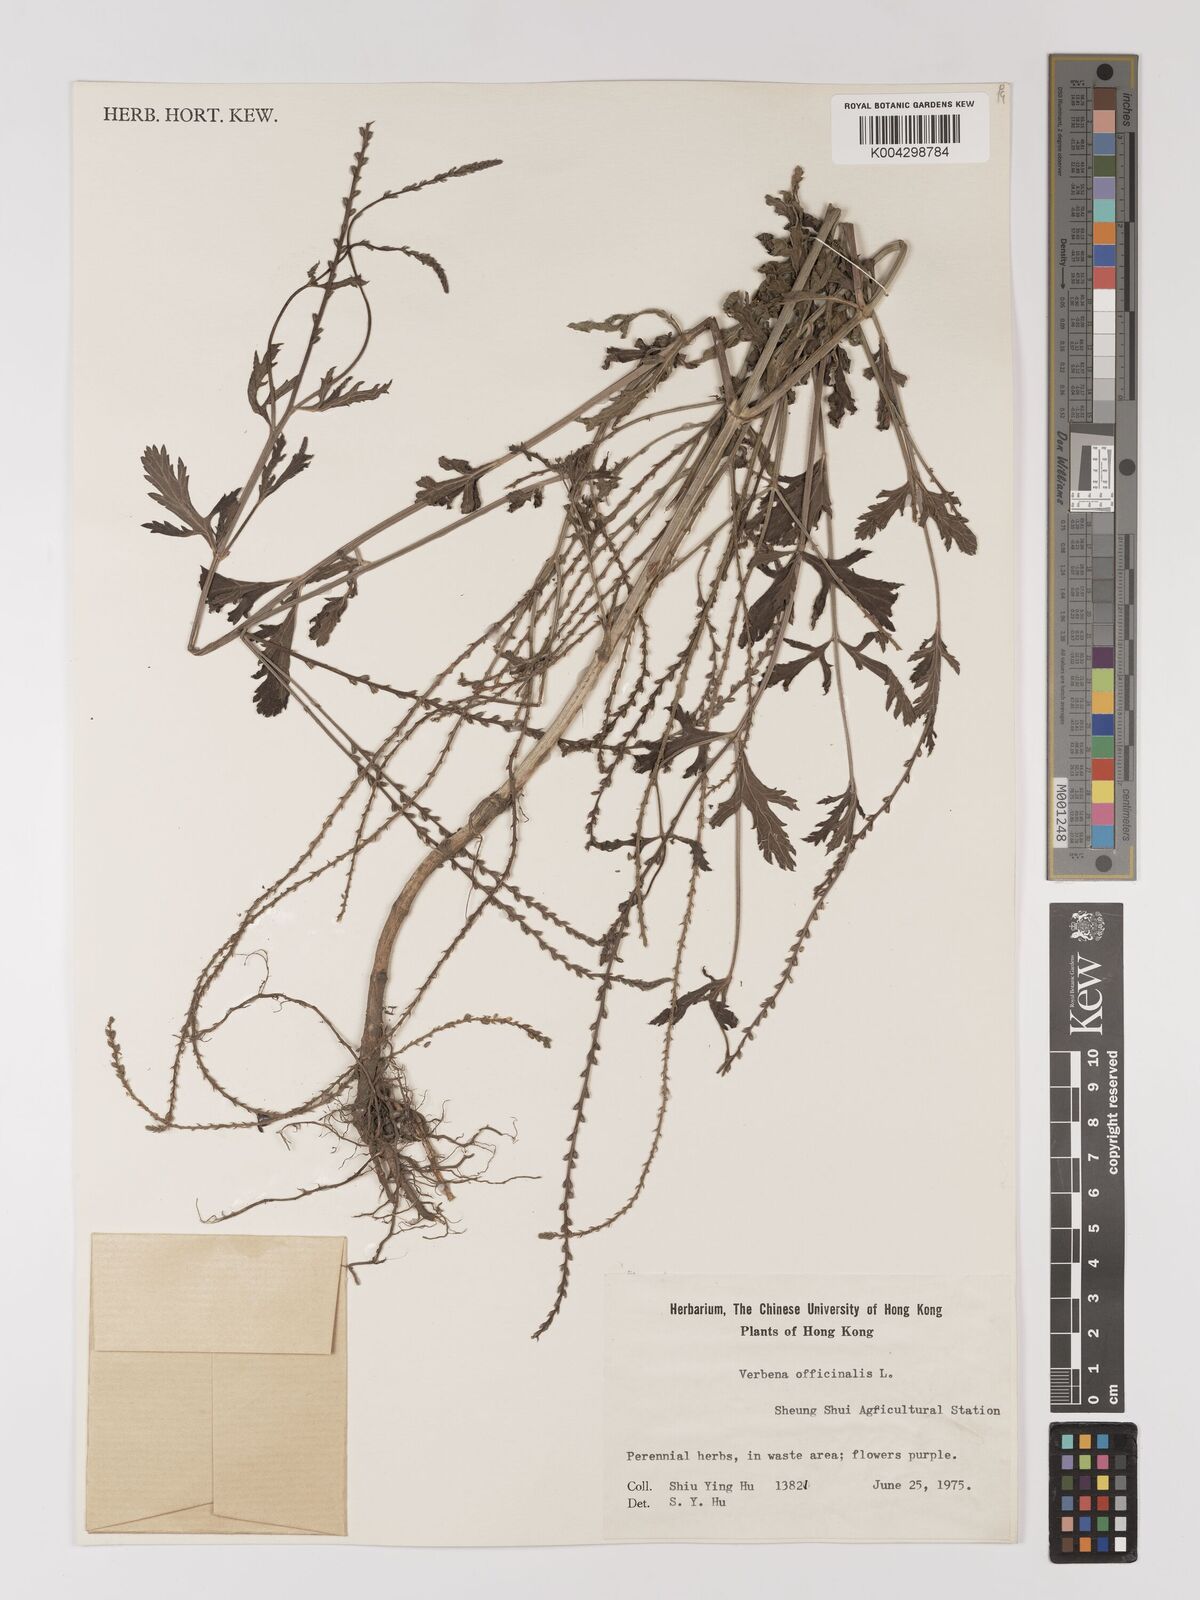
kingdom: Plantae
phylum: Tracheophyta
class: Magnoliopsida
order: Lamiales
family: Verbenaceae
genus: Verbena
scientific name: Verbena officinalis
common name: Vervain
